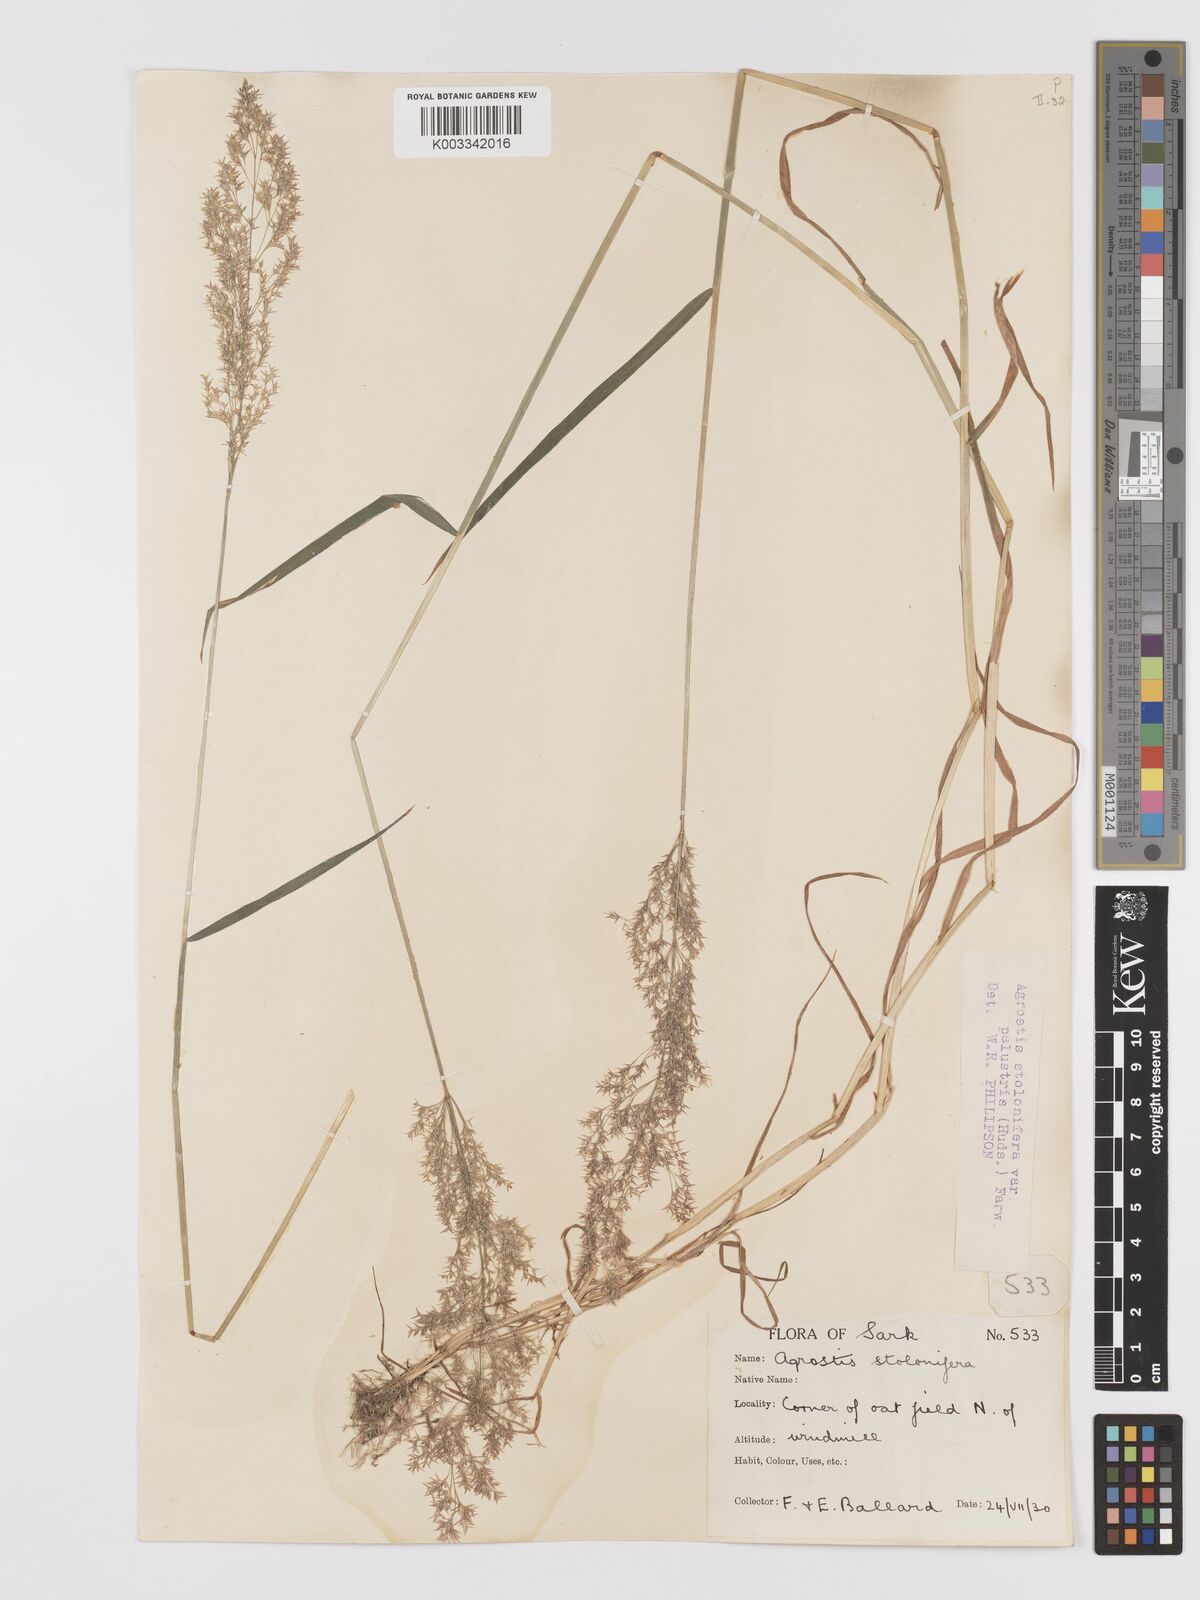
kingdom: Plantae
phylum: Tracheophyta
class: Liliopsida
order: Poales
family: Poaceae
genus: Agrostis
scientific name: Agrostis stolonifera
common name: Creeping bentgrass
